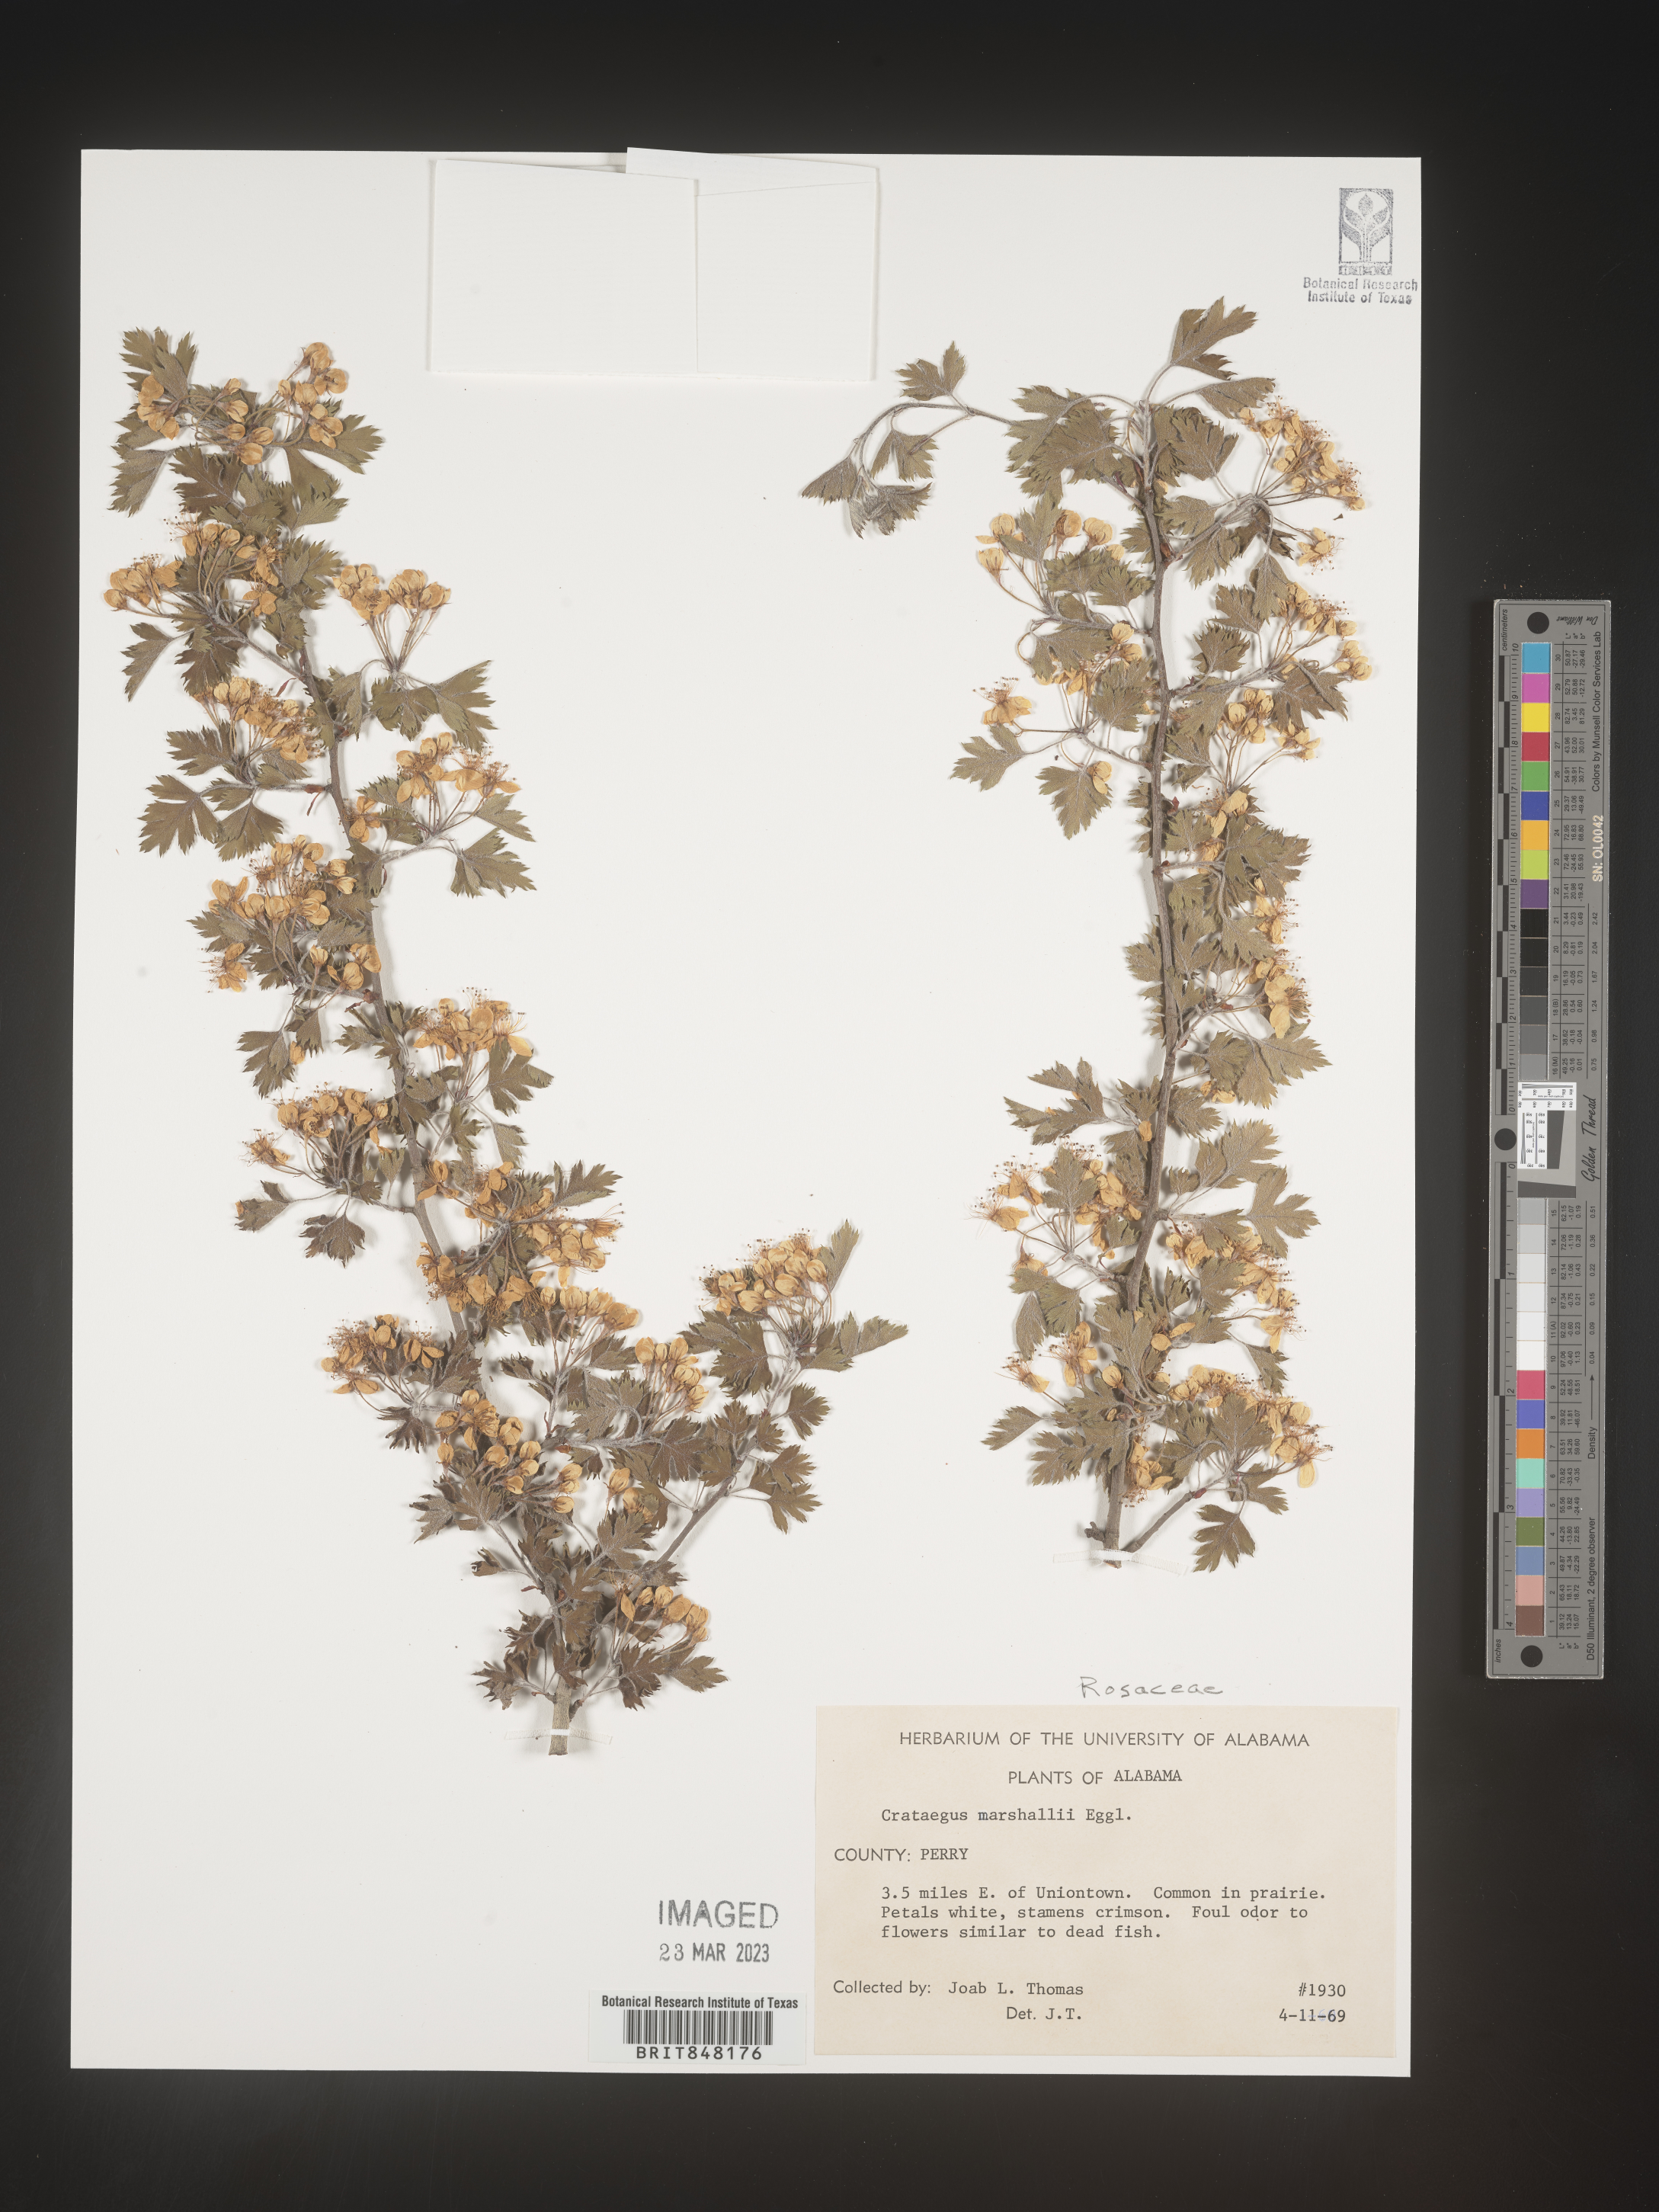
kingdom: Plantae
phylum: Tracheophyta
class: Magnoliopsida
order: Rosales
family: Rosaceae
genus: Crataegus
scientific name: Crataegus marshallii
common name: Parsley-hawthorn
